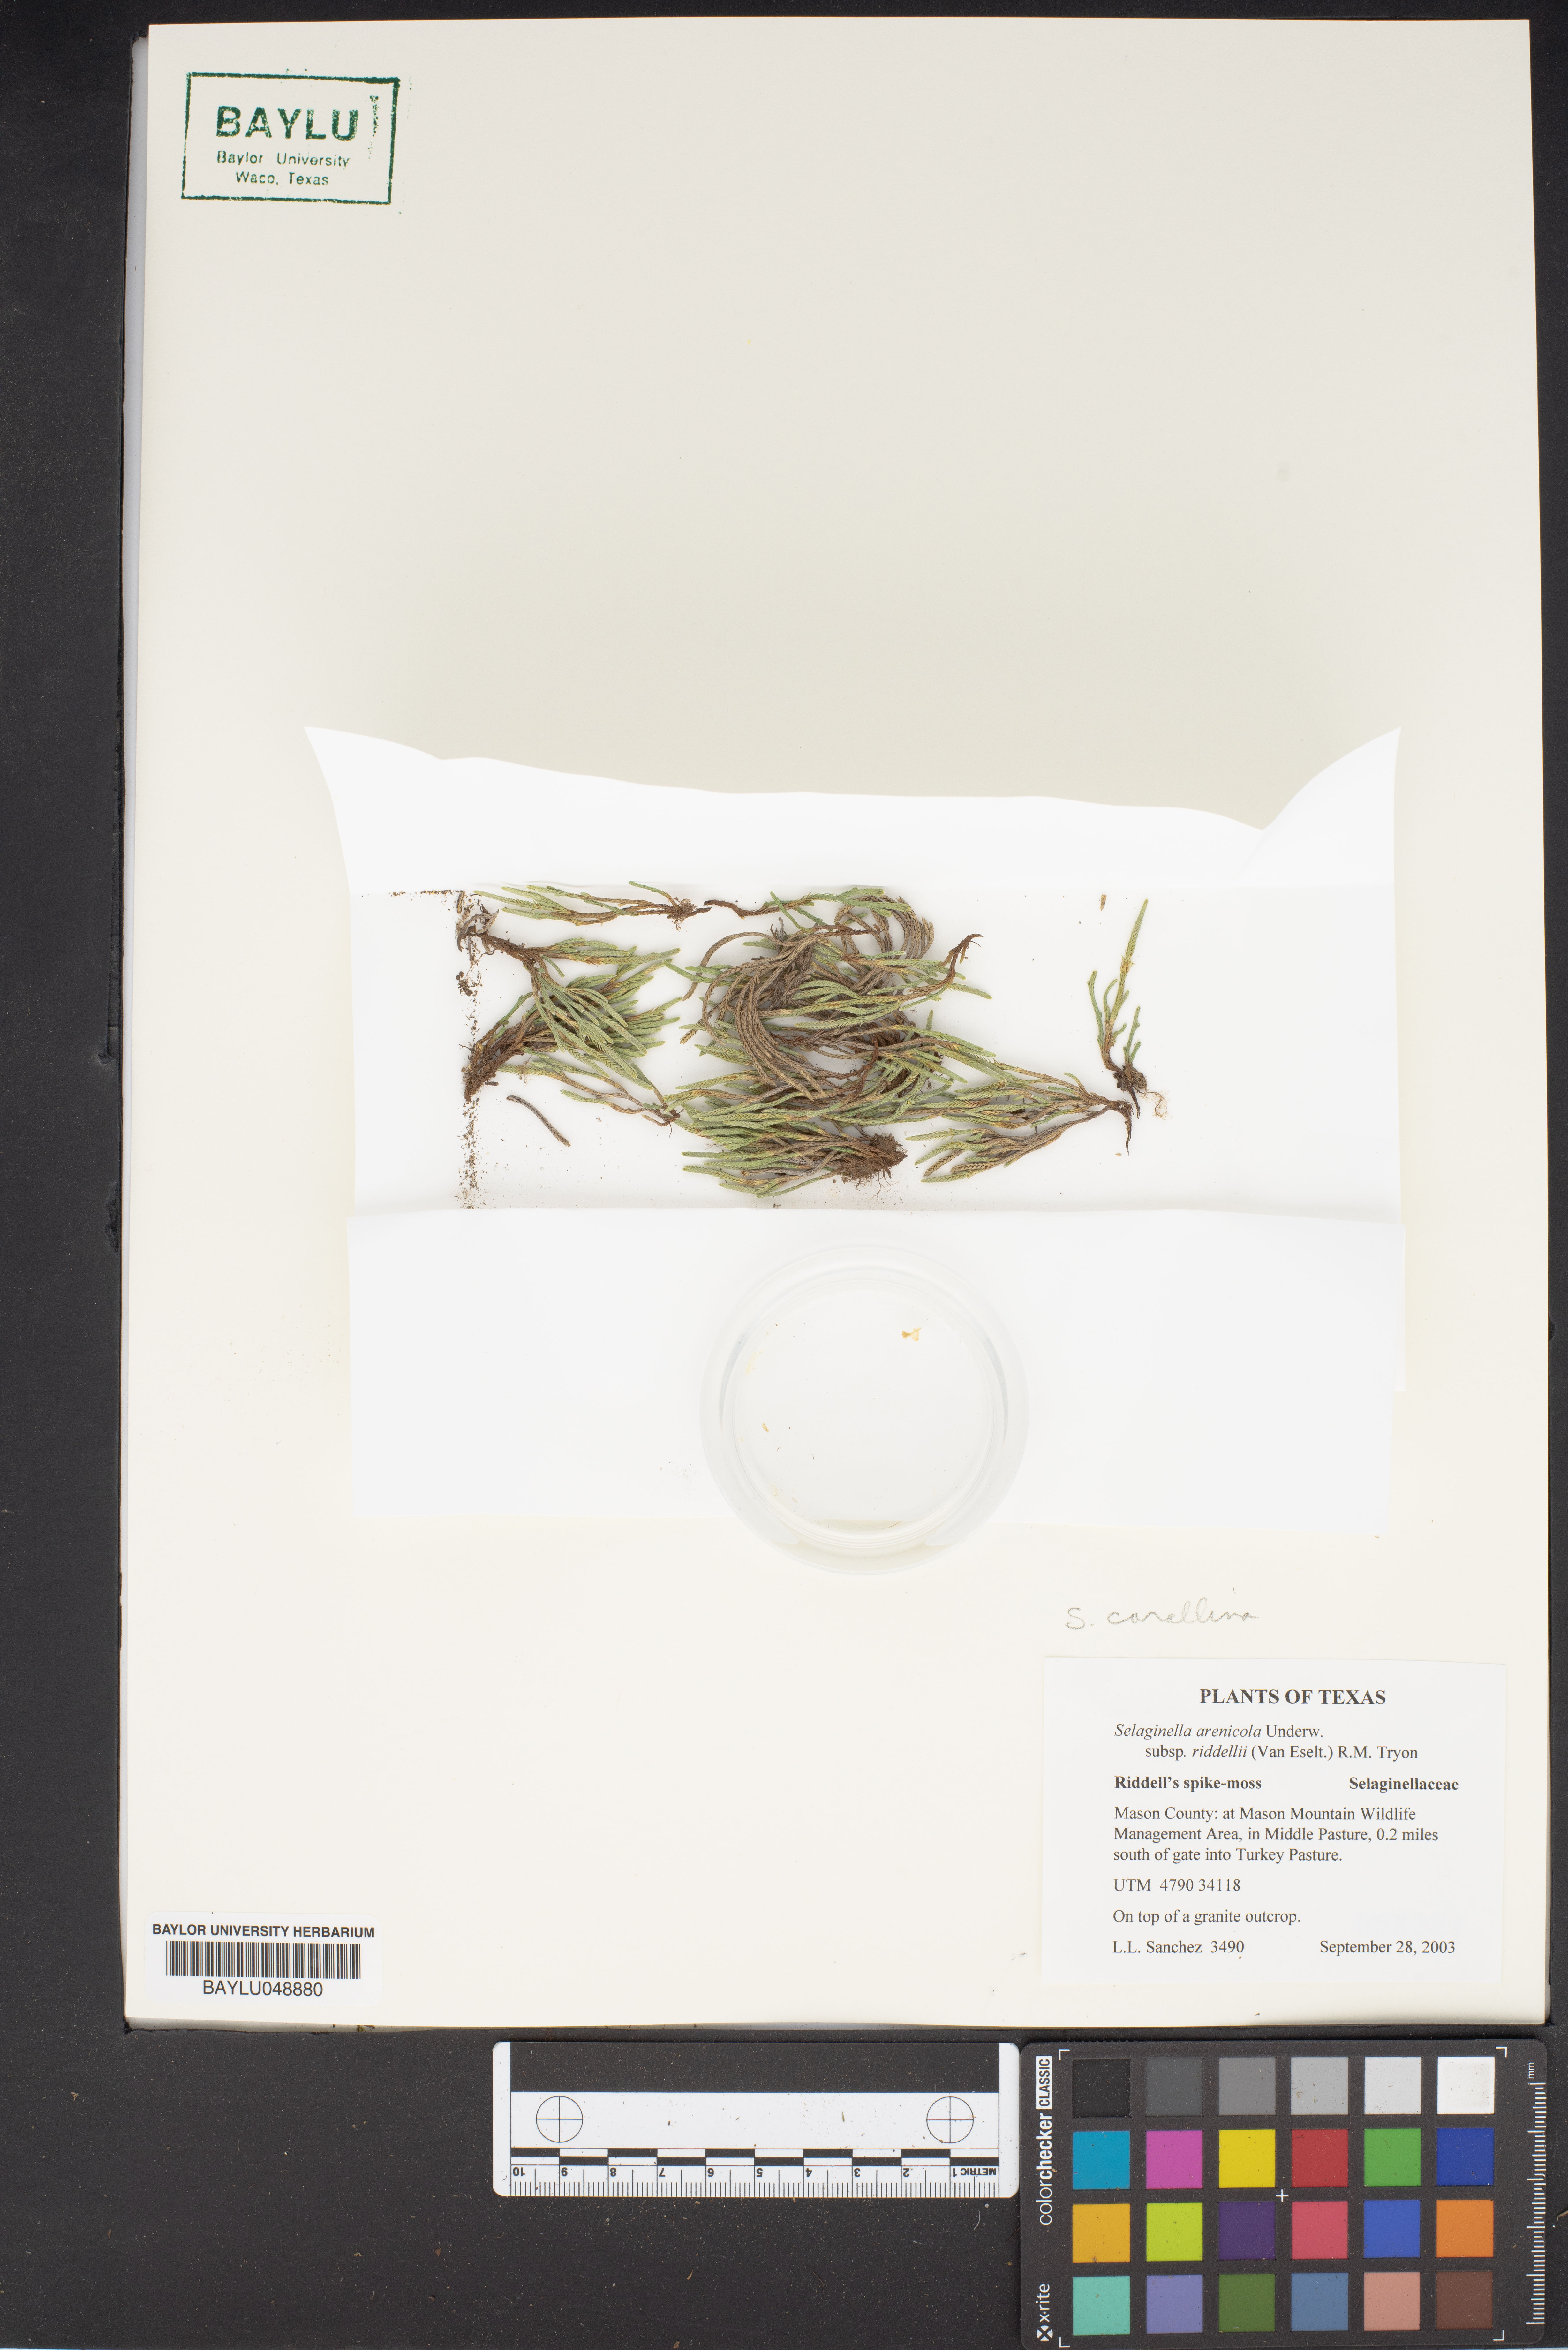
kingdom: Plantae
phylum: Tracheophyta
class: Lycopodiopsida
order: Selaginellales
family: Selaginellaceae
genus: Selaginella
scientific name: Selaginella corallina
